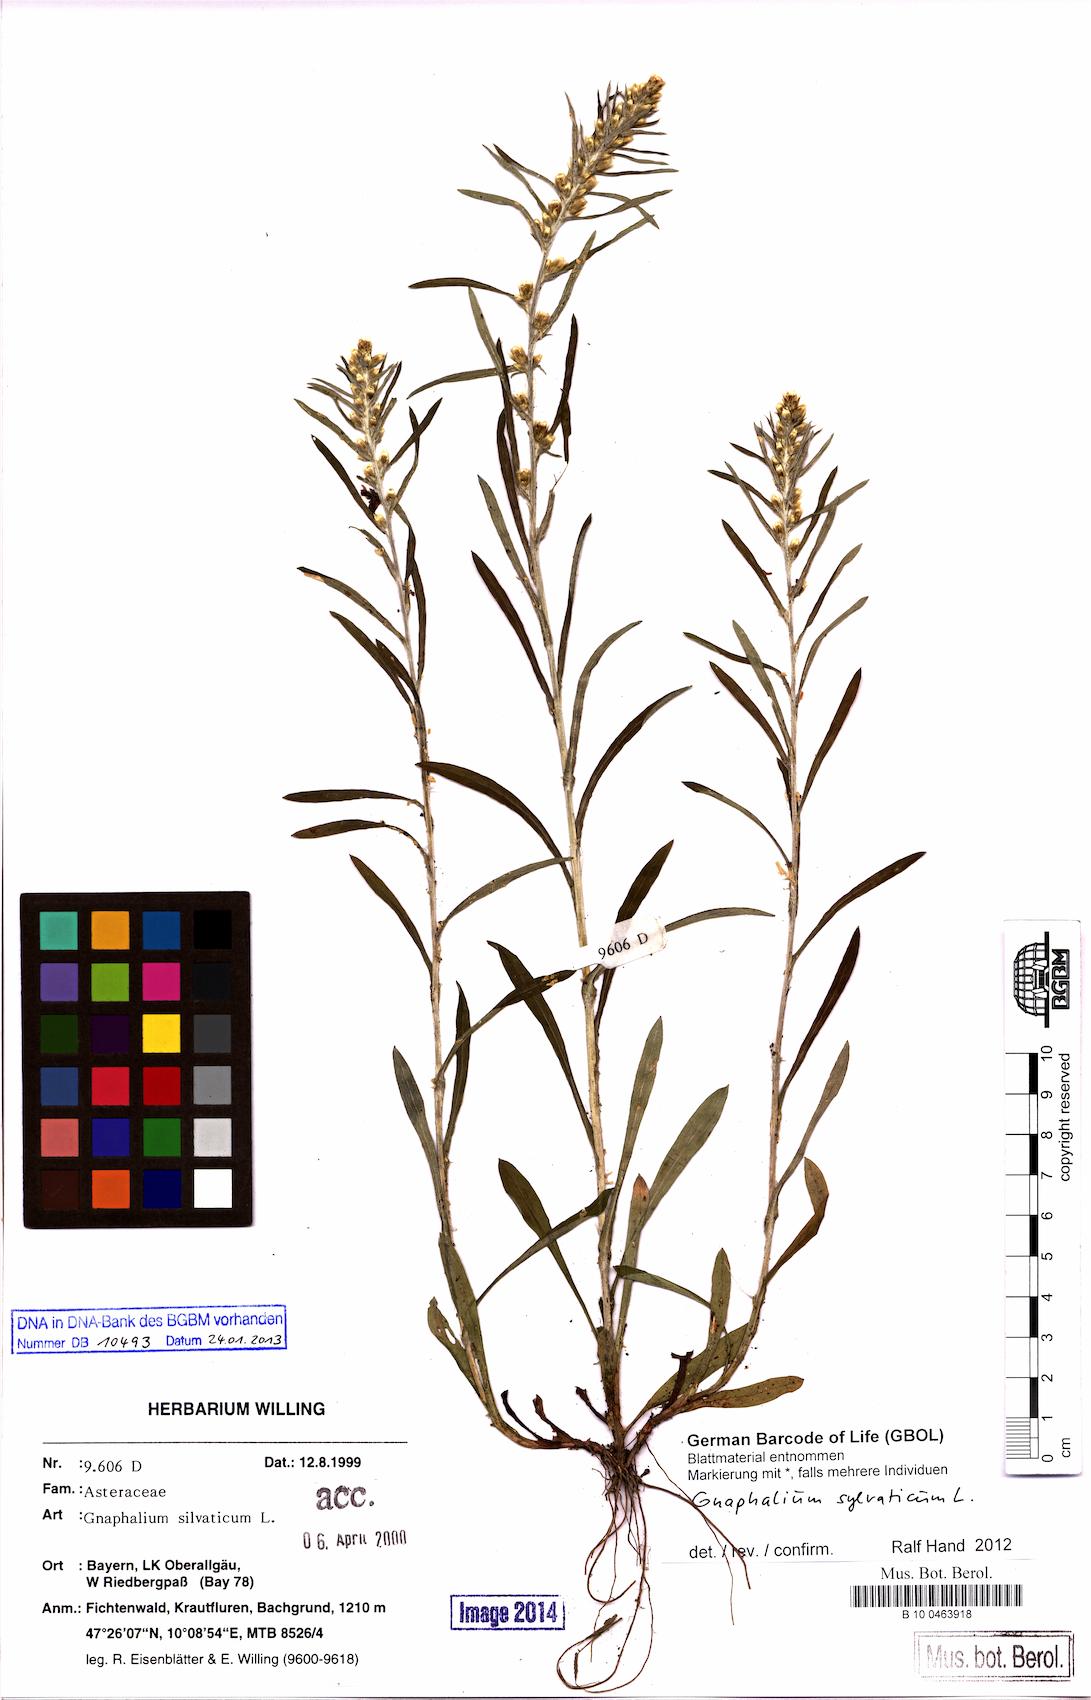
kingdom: Plantae
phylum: Tracheophyta
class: Magnoliopsida
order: Asterales
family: Asteraceae
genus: Omalotheca
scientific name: Omalotheca sylvatica
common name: Heath cudweed
